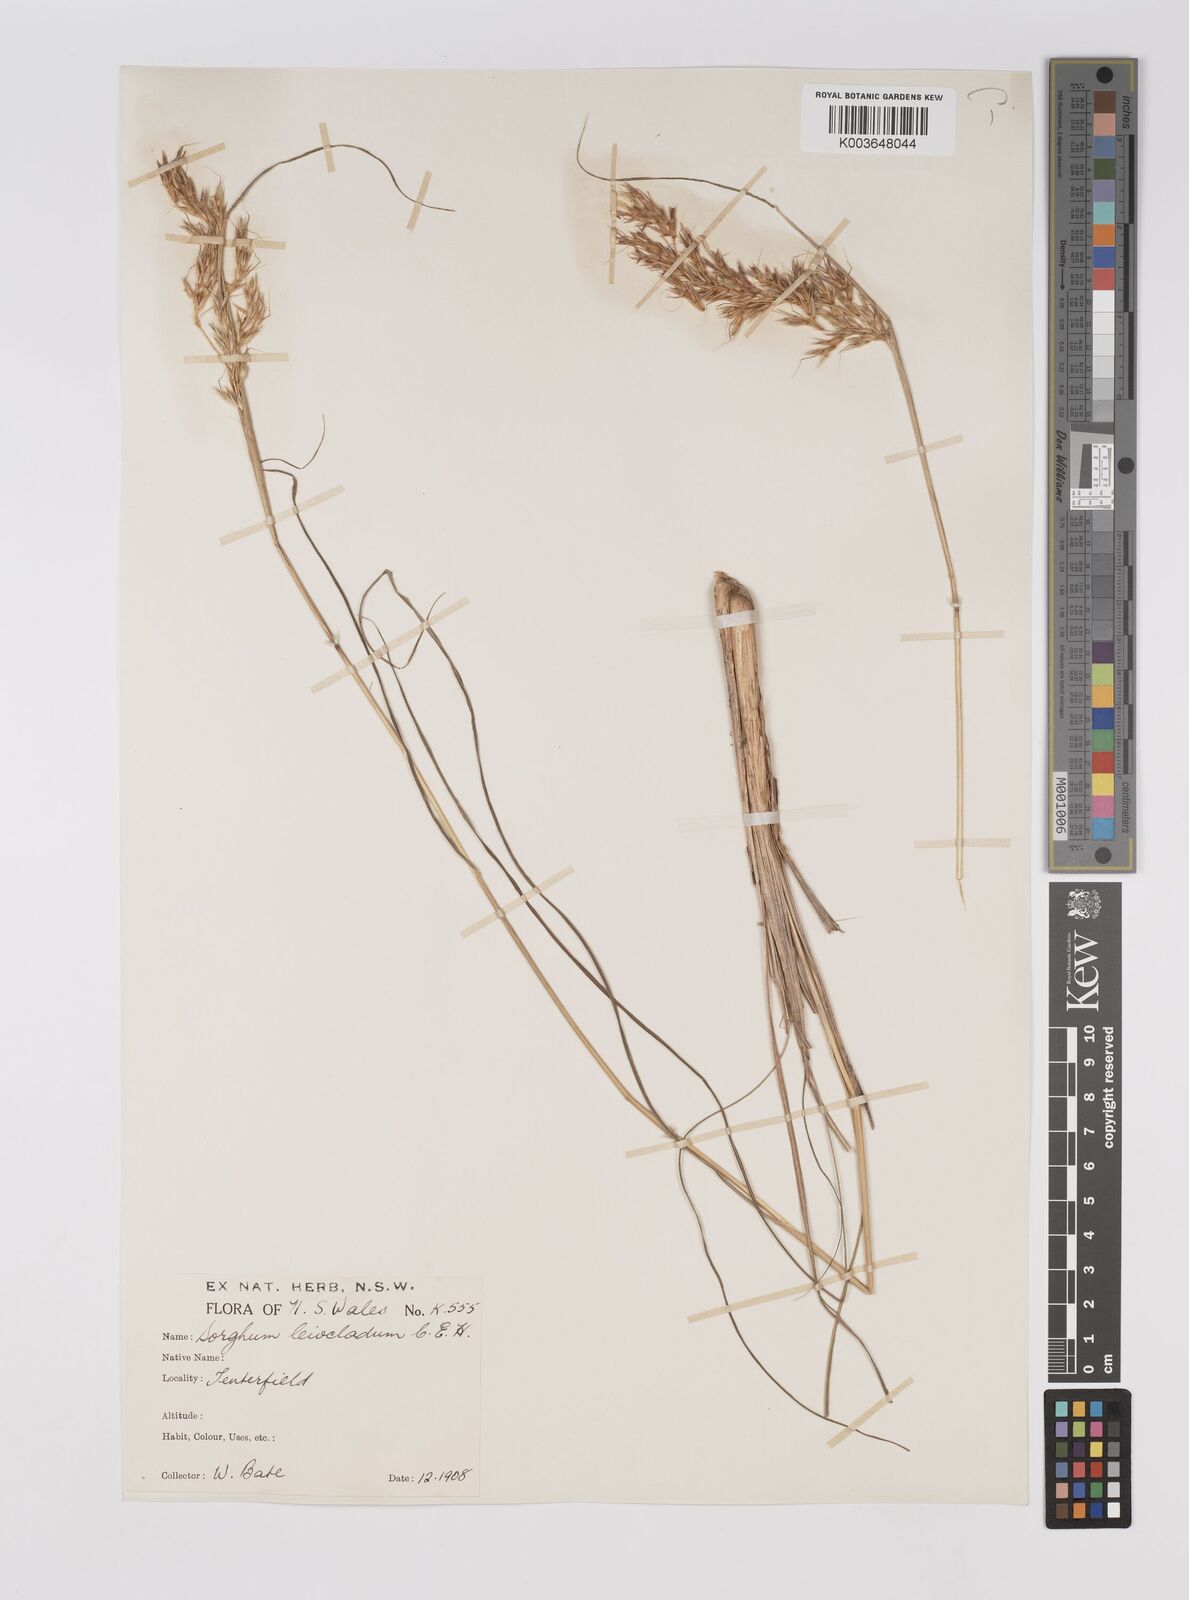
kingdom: Plantae
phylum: Tracheophyta
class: Liliopsida
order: Poales
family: Poaceae
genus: Sarga
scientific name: Sarga leioclada
